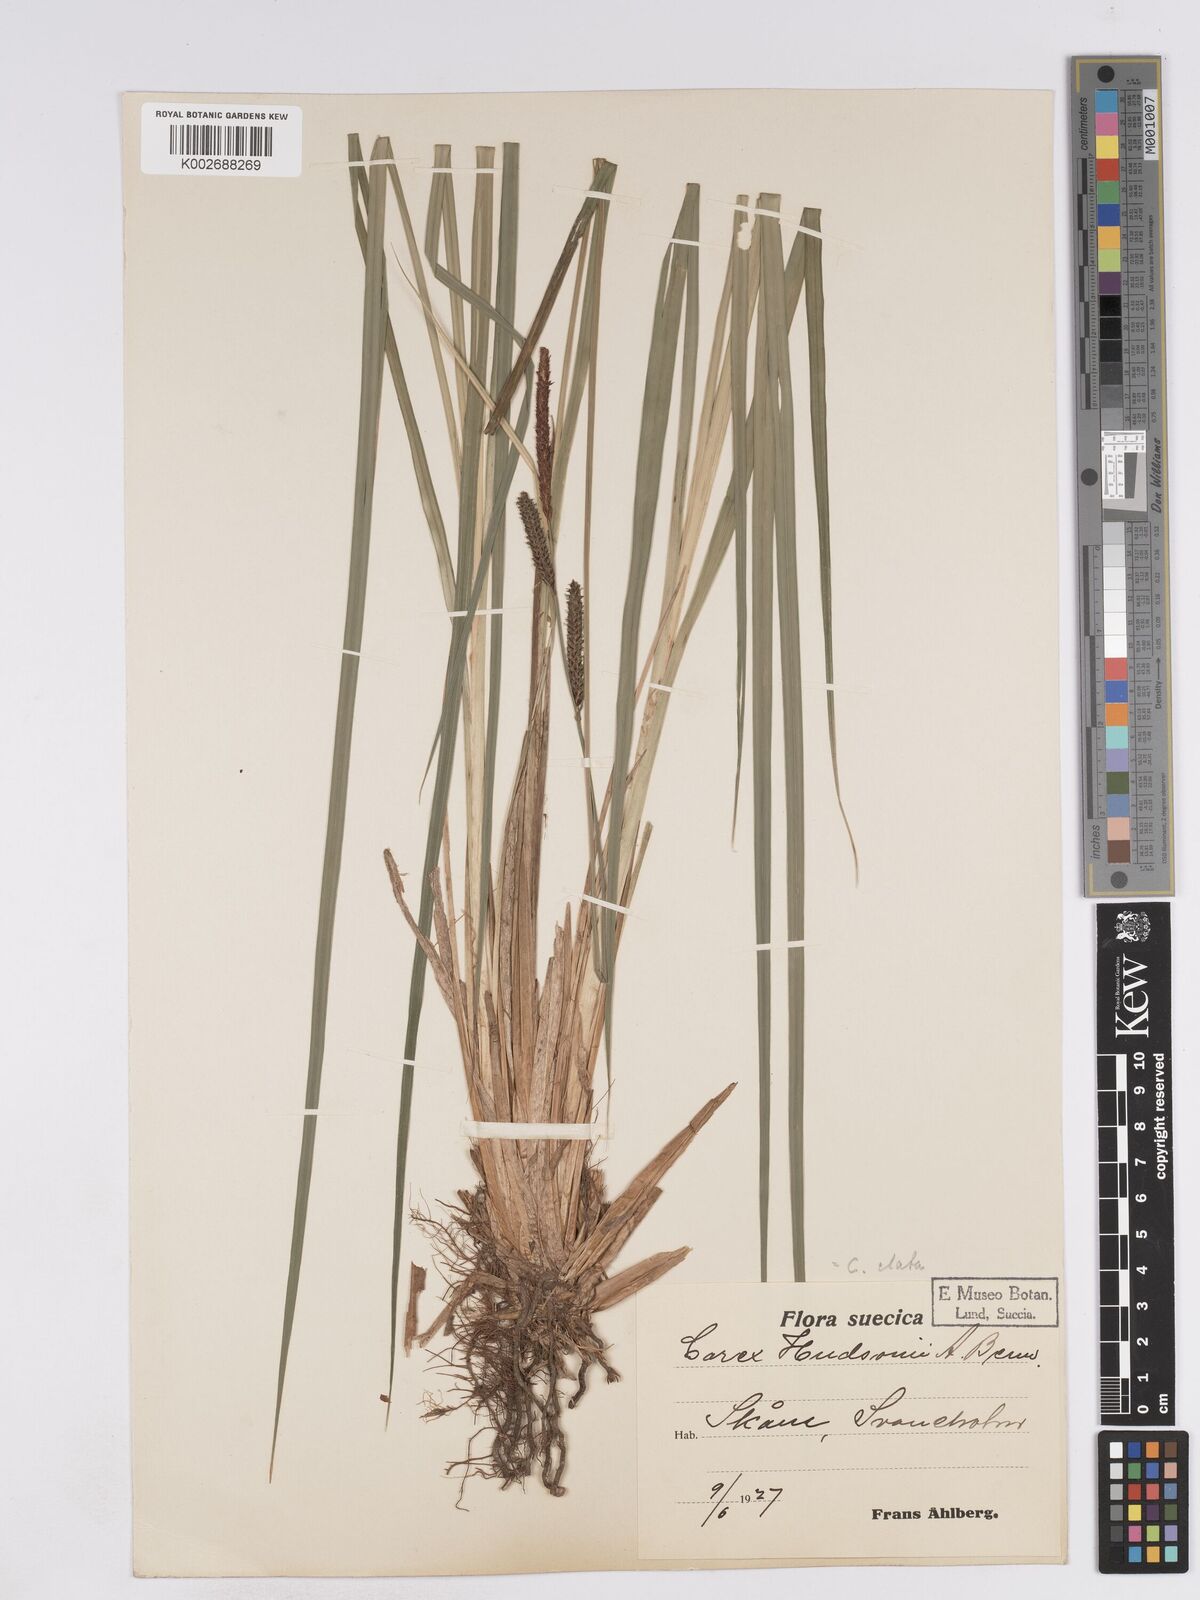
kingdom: Plantae
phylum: Tracheophyta
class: Liliopsida
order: Poales
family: Cyperaceae
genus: Carex
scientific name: Carex elata
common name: Tufted sedge
